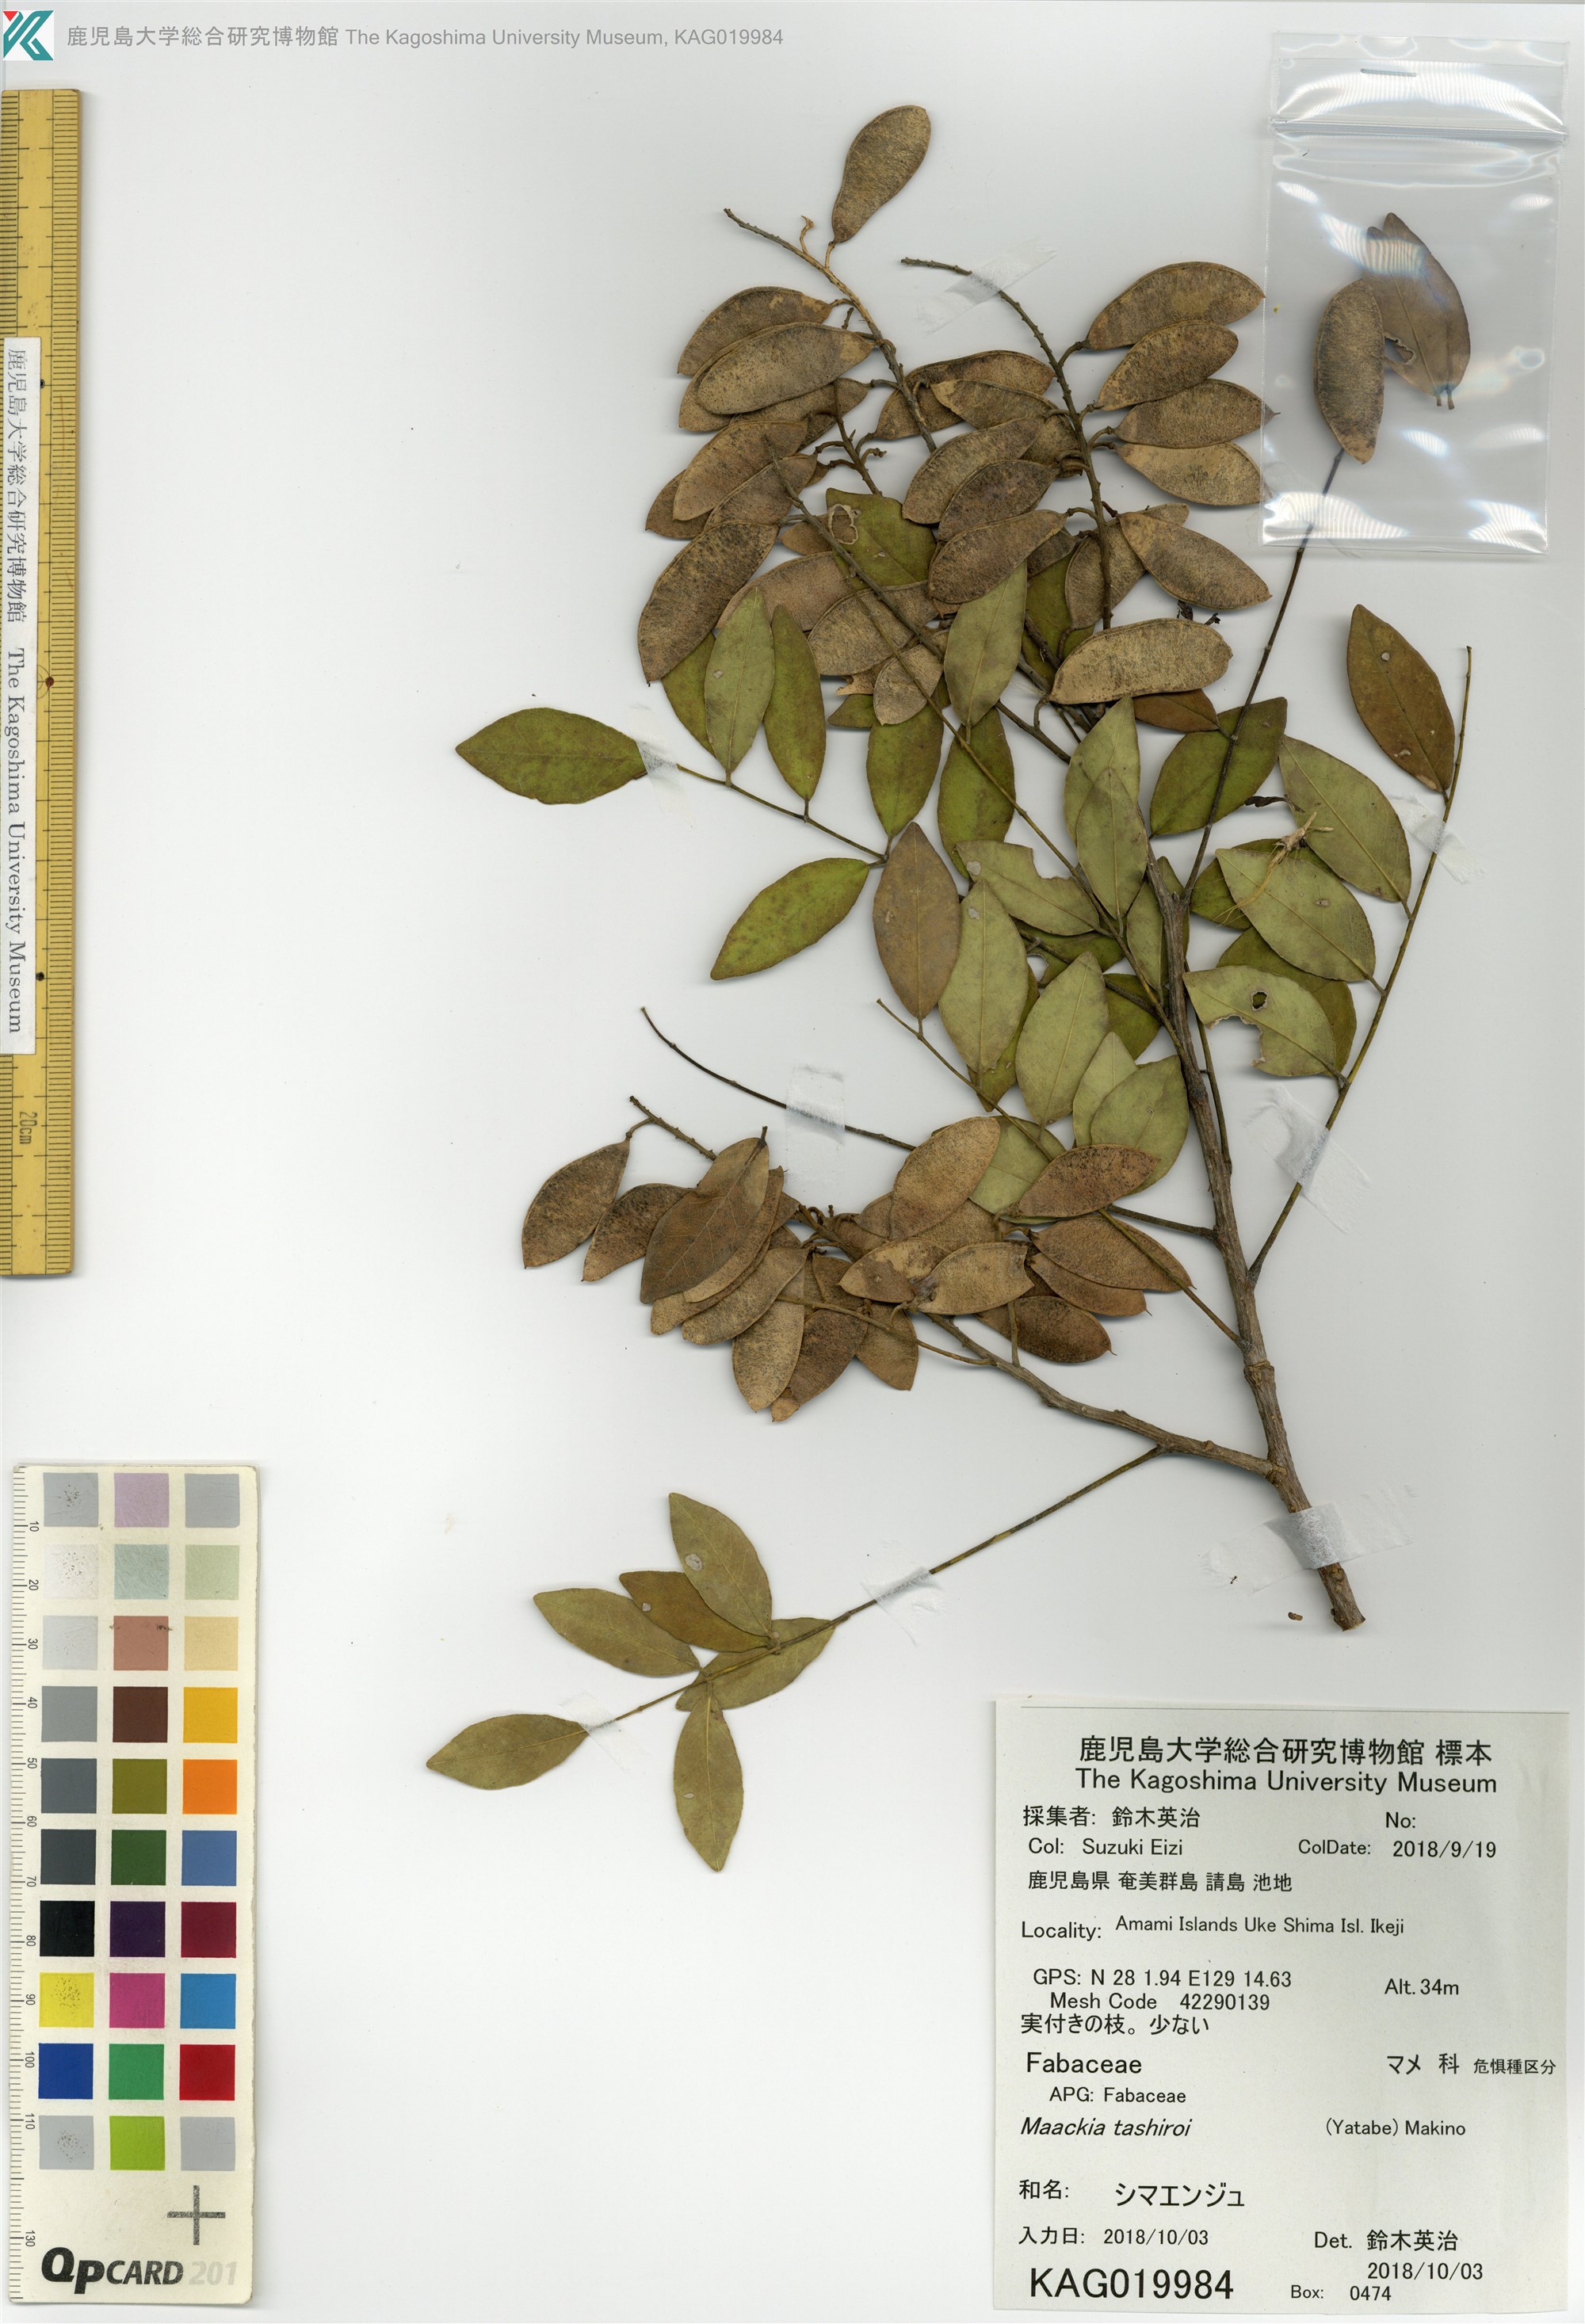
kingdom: Plantae
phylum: Tracheophyta
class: Magnoliopsida
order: Fabales
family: Fabaceae
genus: Maackia
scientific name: Maackia tashiroi
